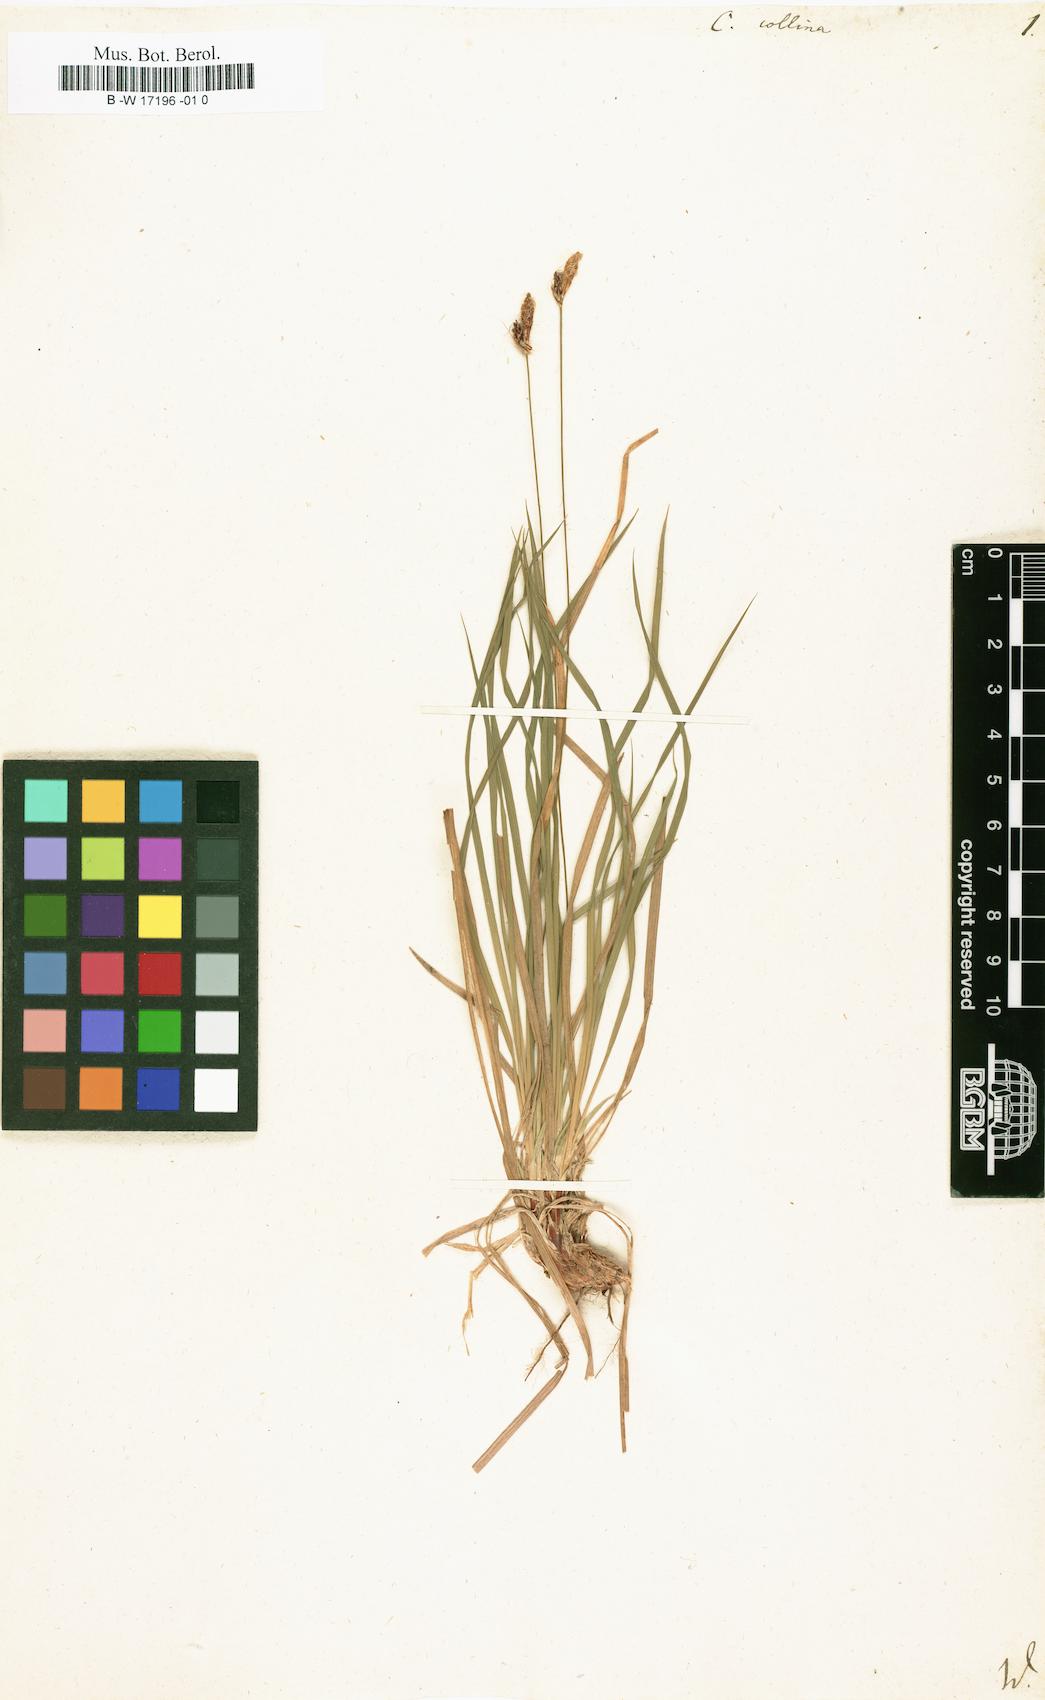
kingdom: Plantae
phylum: Tracheophyta
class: Liliopsida
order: Poales
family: Cyperaceae
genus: Carex
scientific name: Carex montana
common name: Soft-leaved sedge
